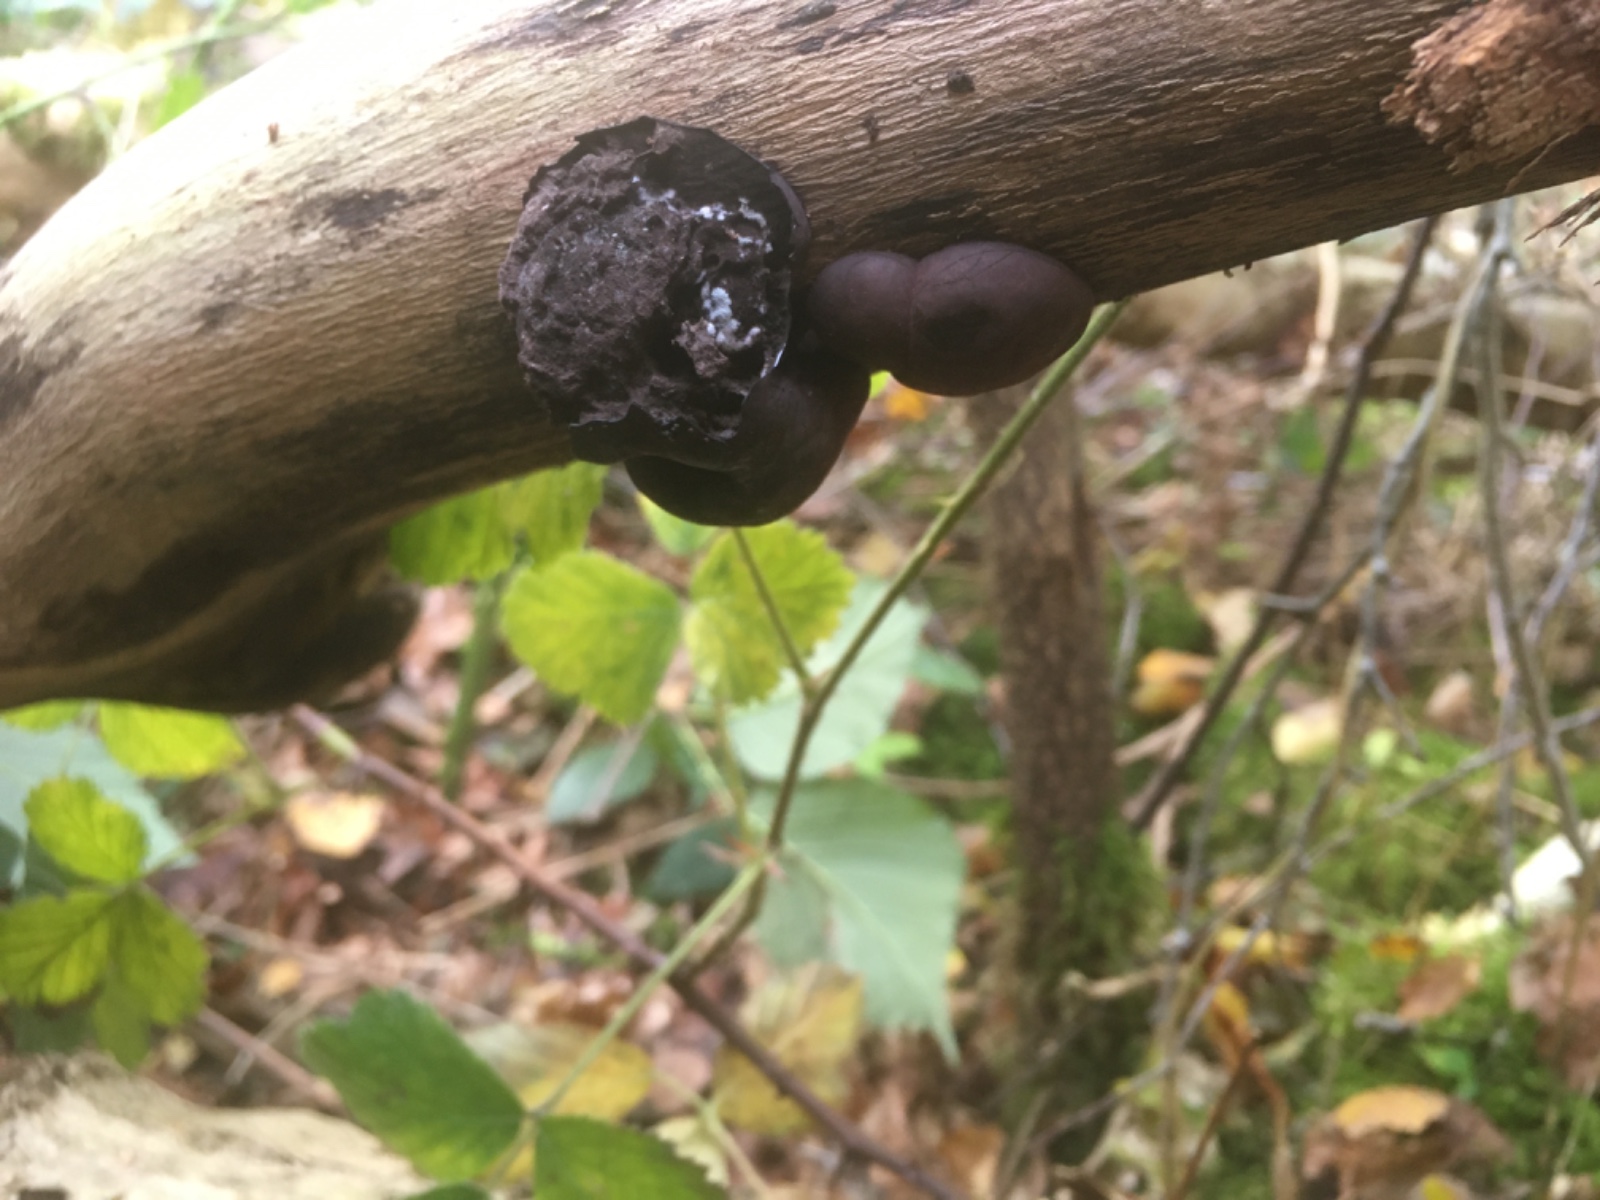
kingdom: Fungi
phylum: Ascomycota
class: Sordariomycetes
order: Xylariales
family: Hypoxylaceae
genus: Daldinia
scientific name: Daldinia concentrica
